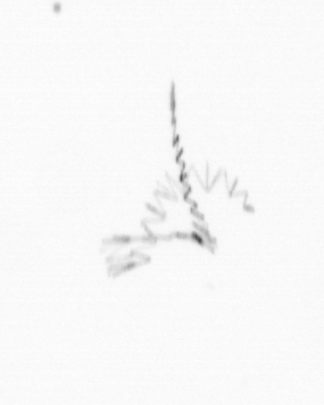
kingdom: Chromista
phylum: Ochrophyta
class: Bacillariophyceae
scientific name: Bacillariophyceae
